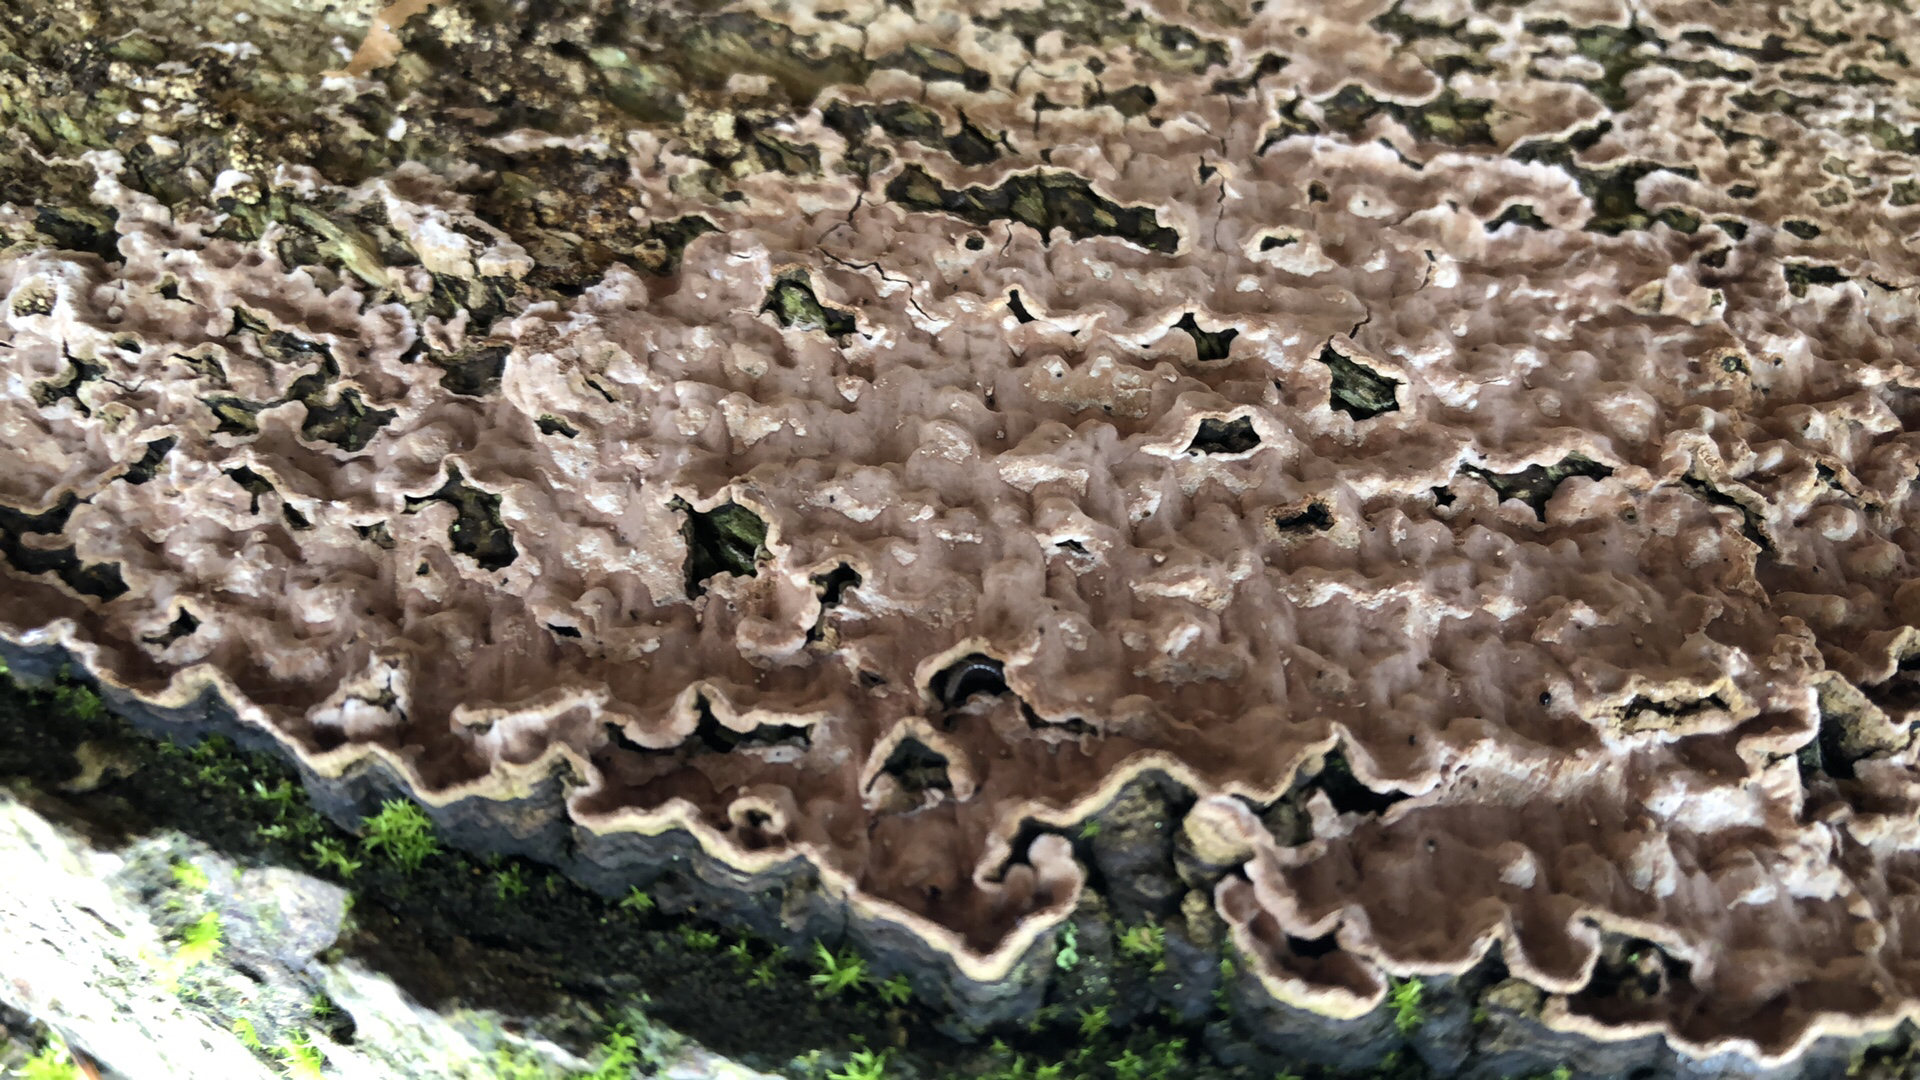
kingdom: Fungi
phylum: Basidiomycota
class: Agaricomycetes
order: Russulales
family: Echinodontiaceae
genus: Amylostereum
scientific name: Amylostereum chailletii
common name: gran-lædersvamp
